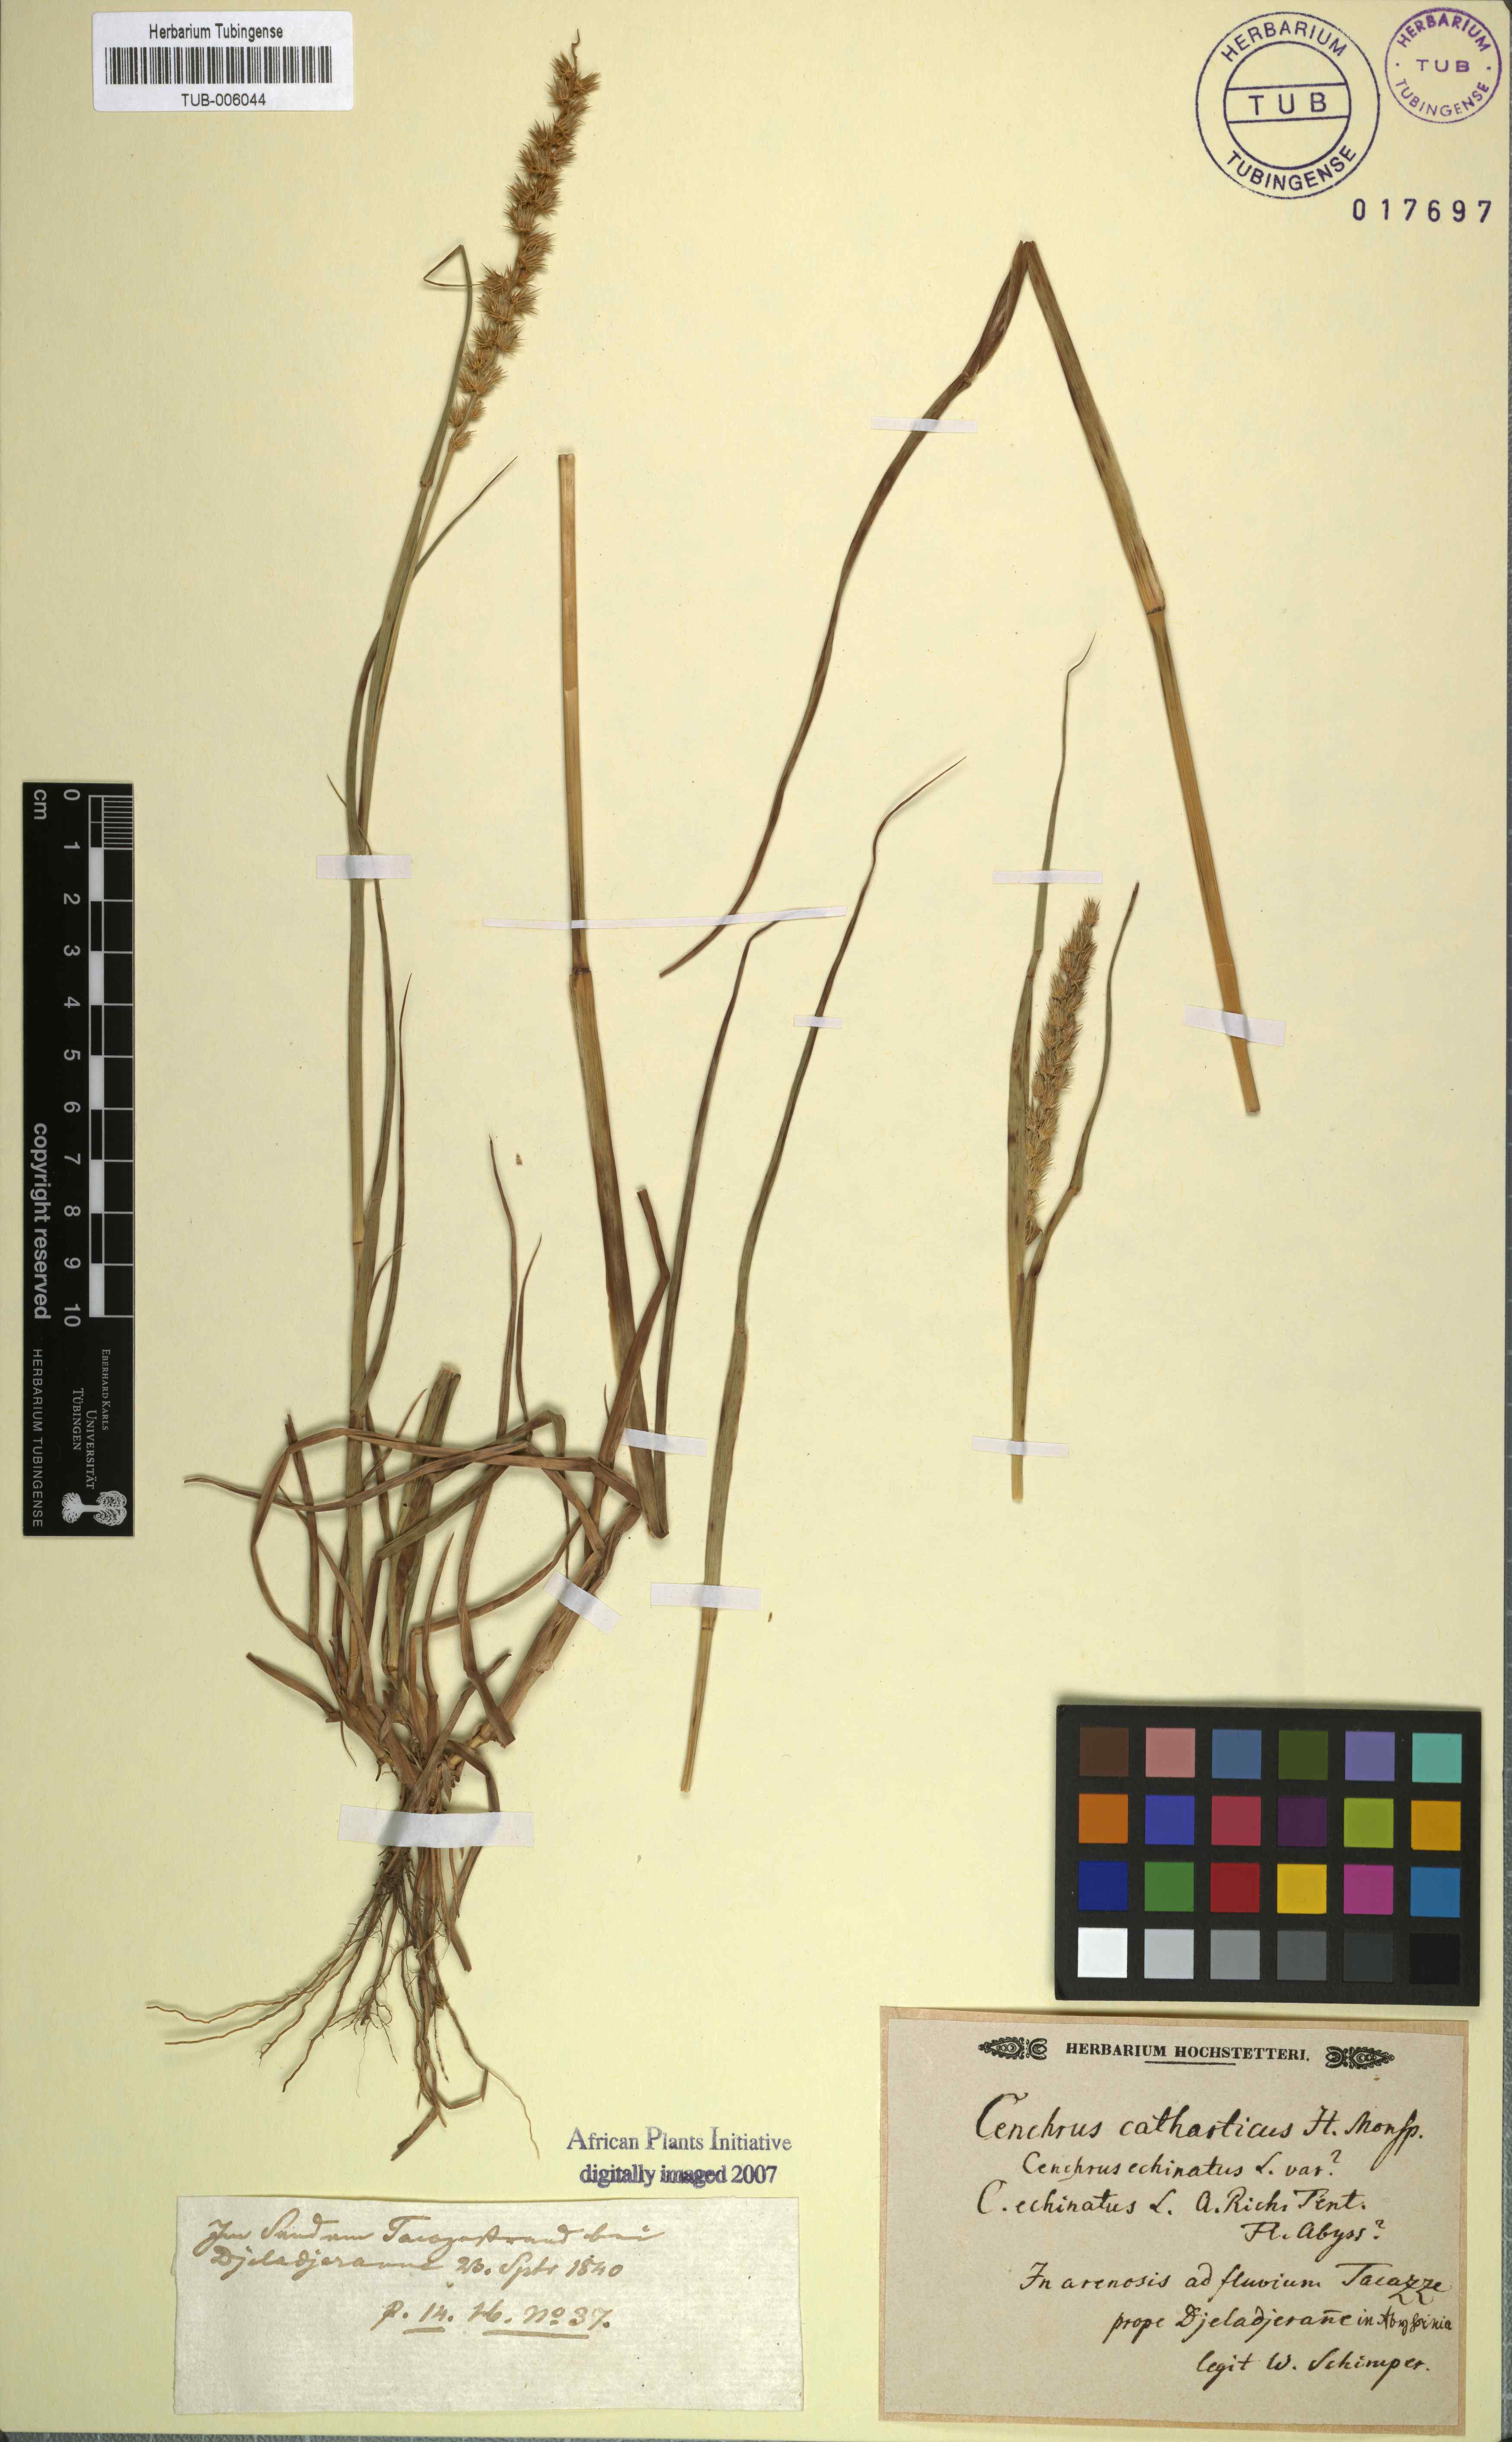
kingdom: Plantae
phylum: Tracheophyta
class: Liliopsida
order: Poales
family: Poaceae
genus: Cenchrus
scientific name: Cenchrus biflorus
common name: Indian sandbur
